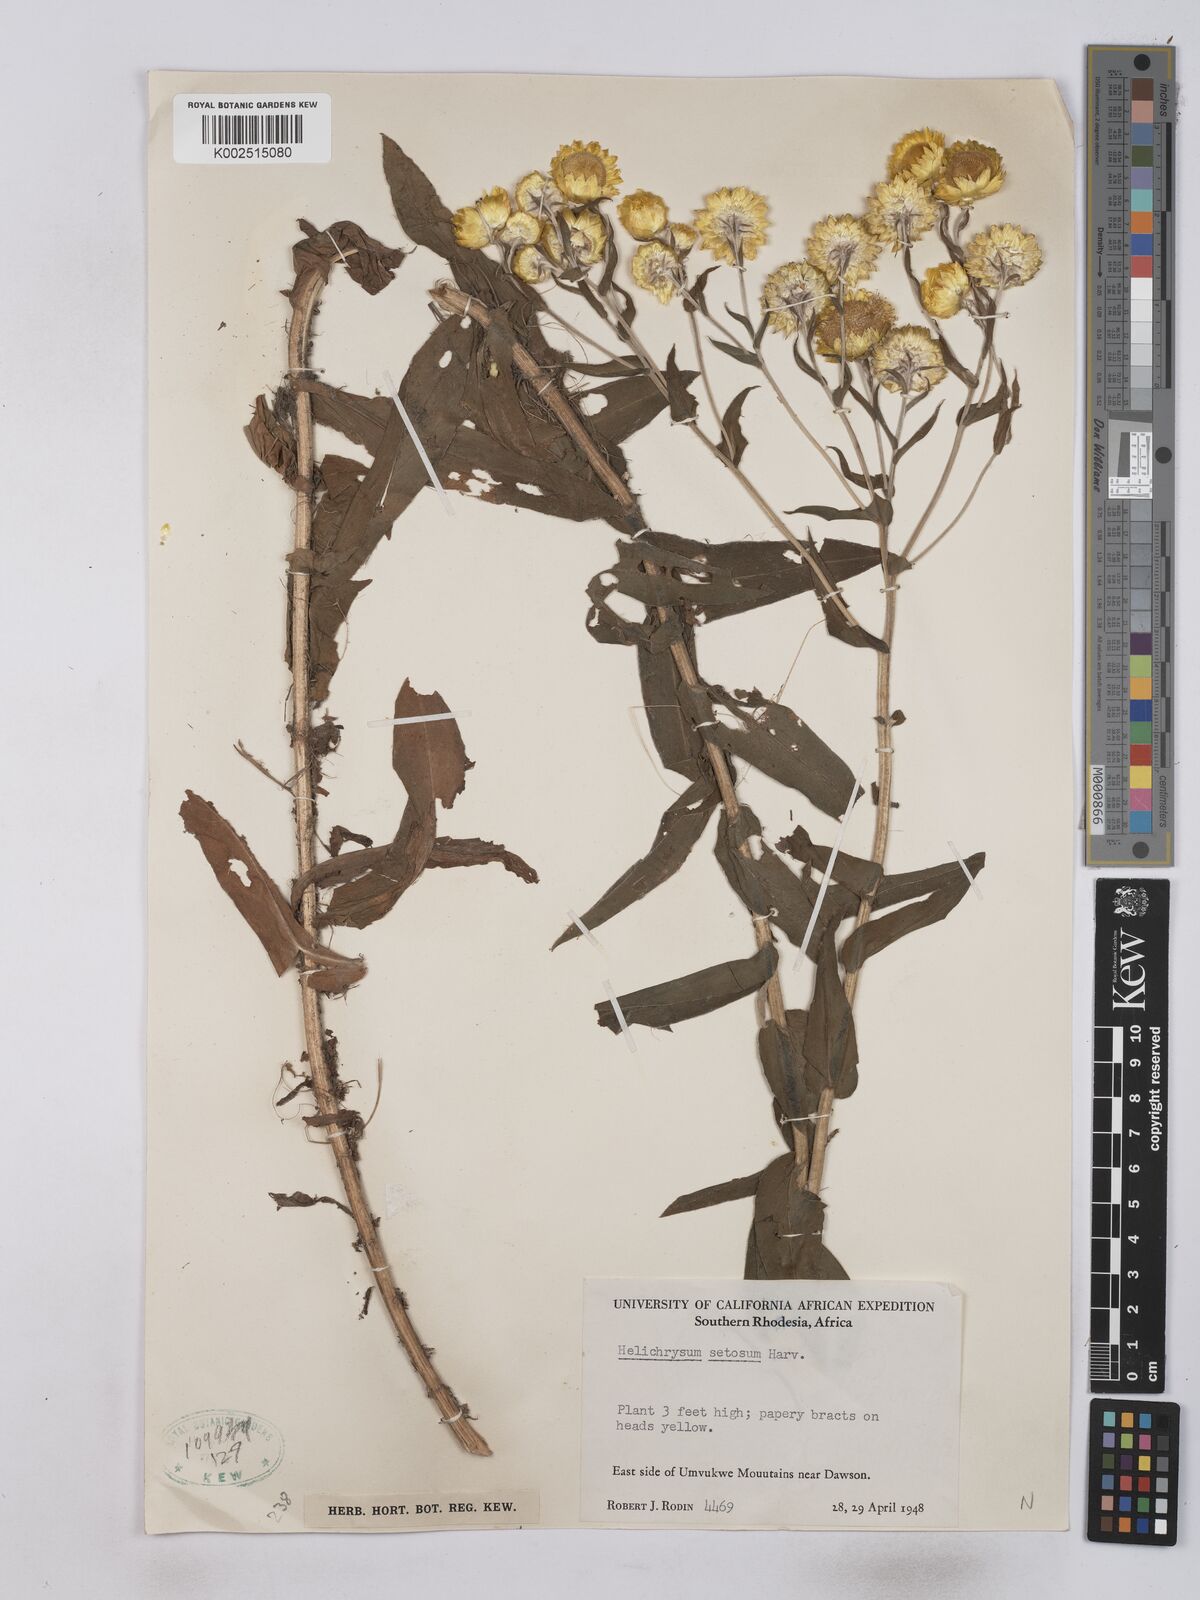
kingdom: Plantae
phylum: Tracheophyta
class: Magnoliopsida
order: Asterales
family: Asteraceae
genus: Helichrysum
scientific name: Helichrysum setosum
